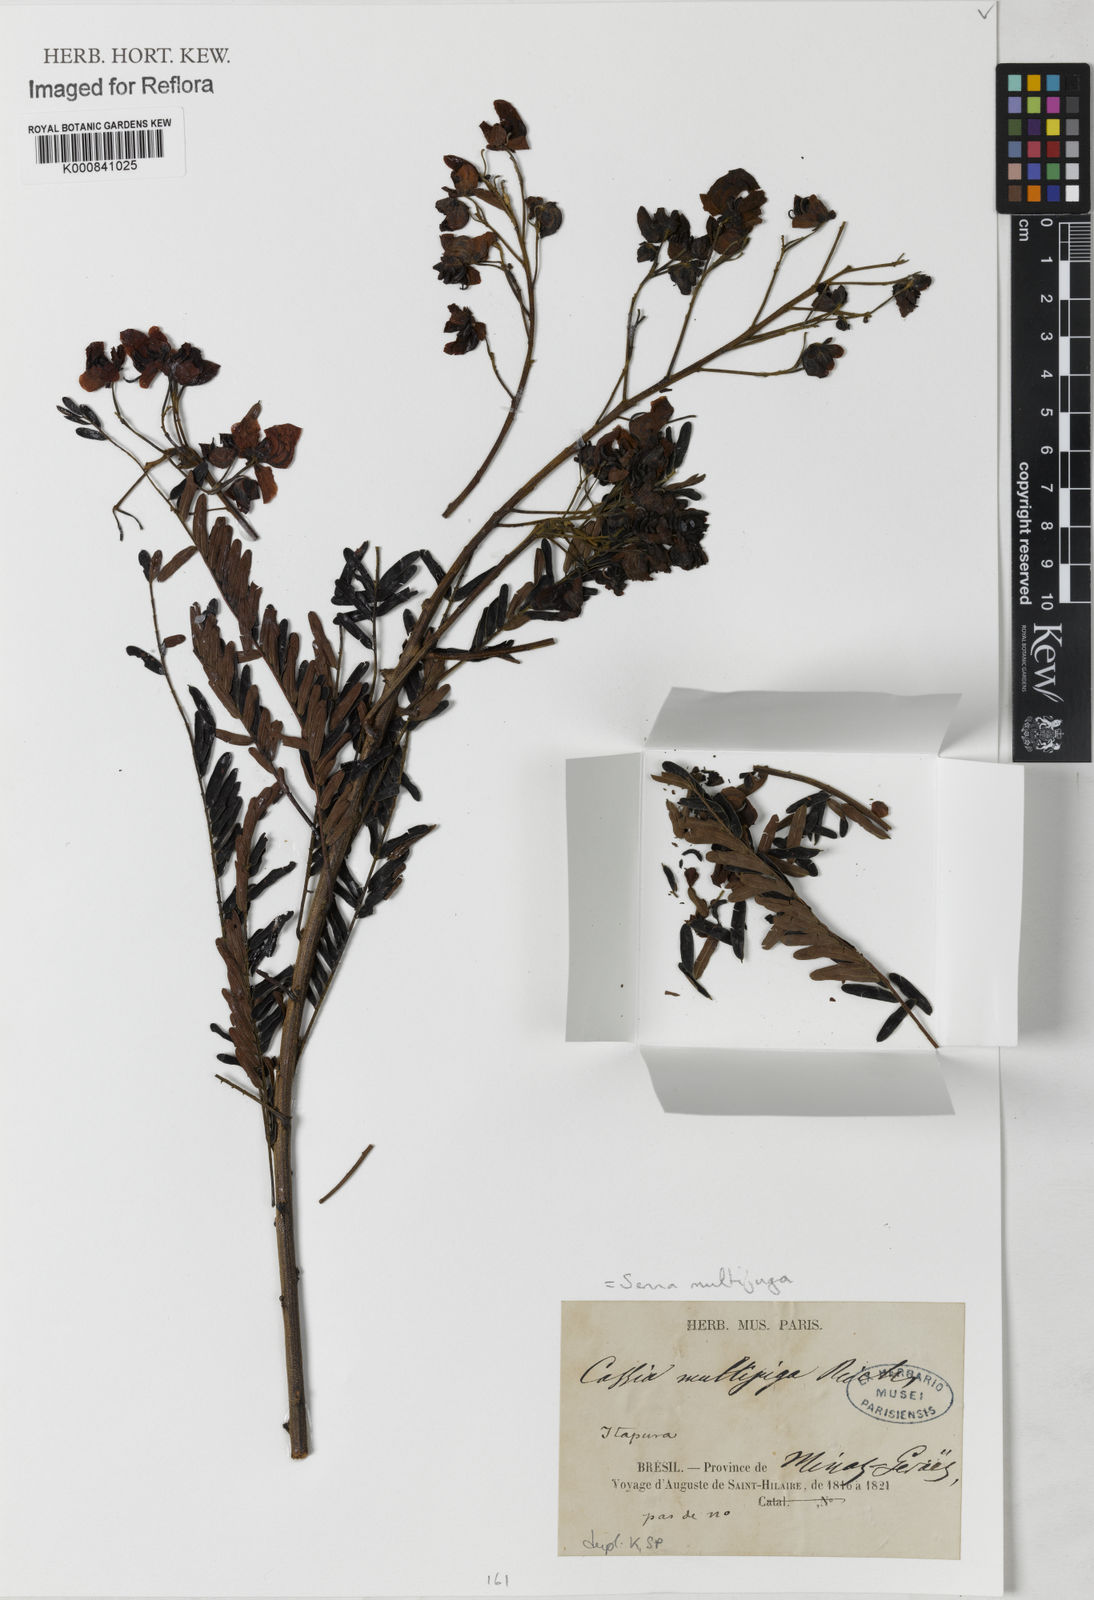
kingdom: Plantae
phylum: Tracheophyta
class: Magnoliopsida
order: Fabales
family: Fabaceae
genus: Senna
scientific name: Senna multijuga
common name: False sicklepod
